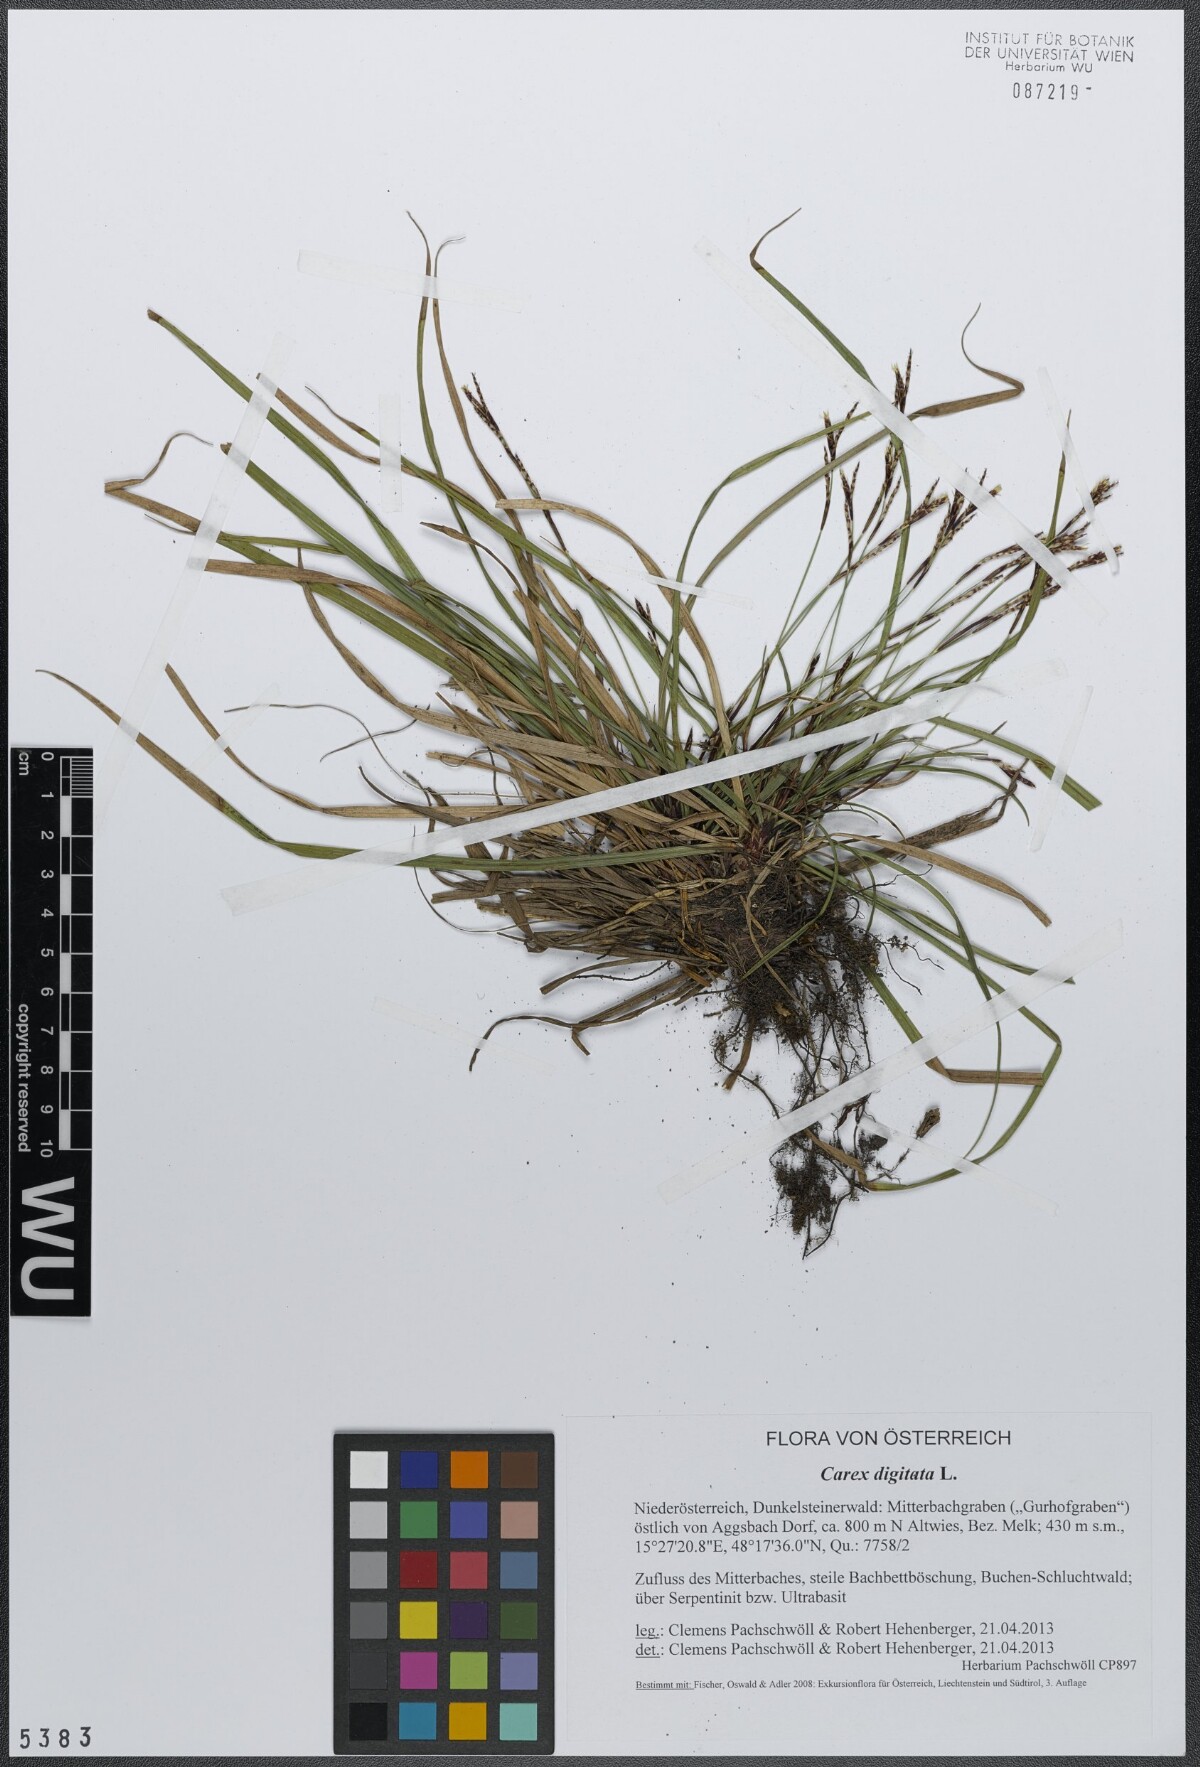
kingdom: Plantae
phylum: Tracheophyta
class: Liliopsida
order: Poales
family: Cyperaceae
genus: Carex
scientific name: Carex digitata
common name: Fingered sedge
